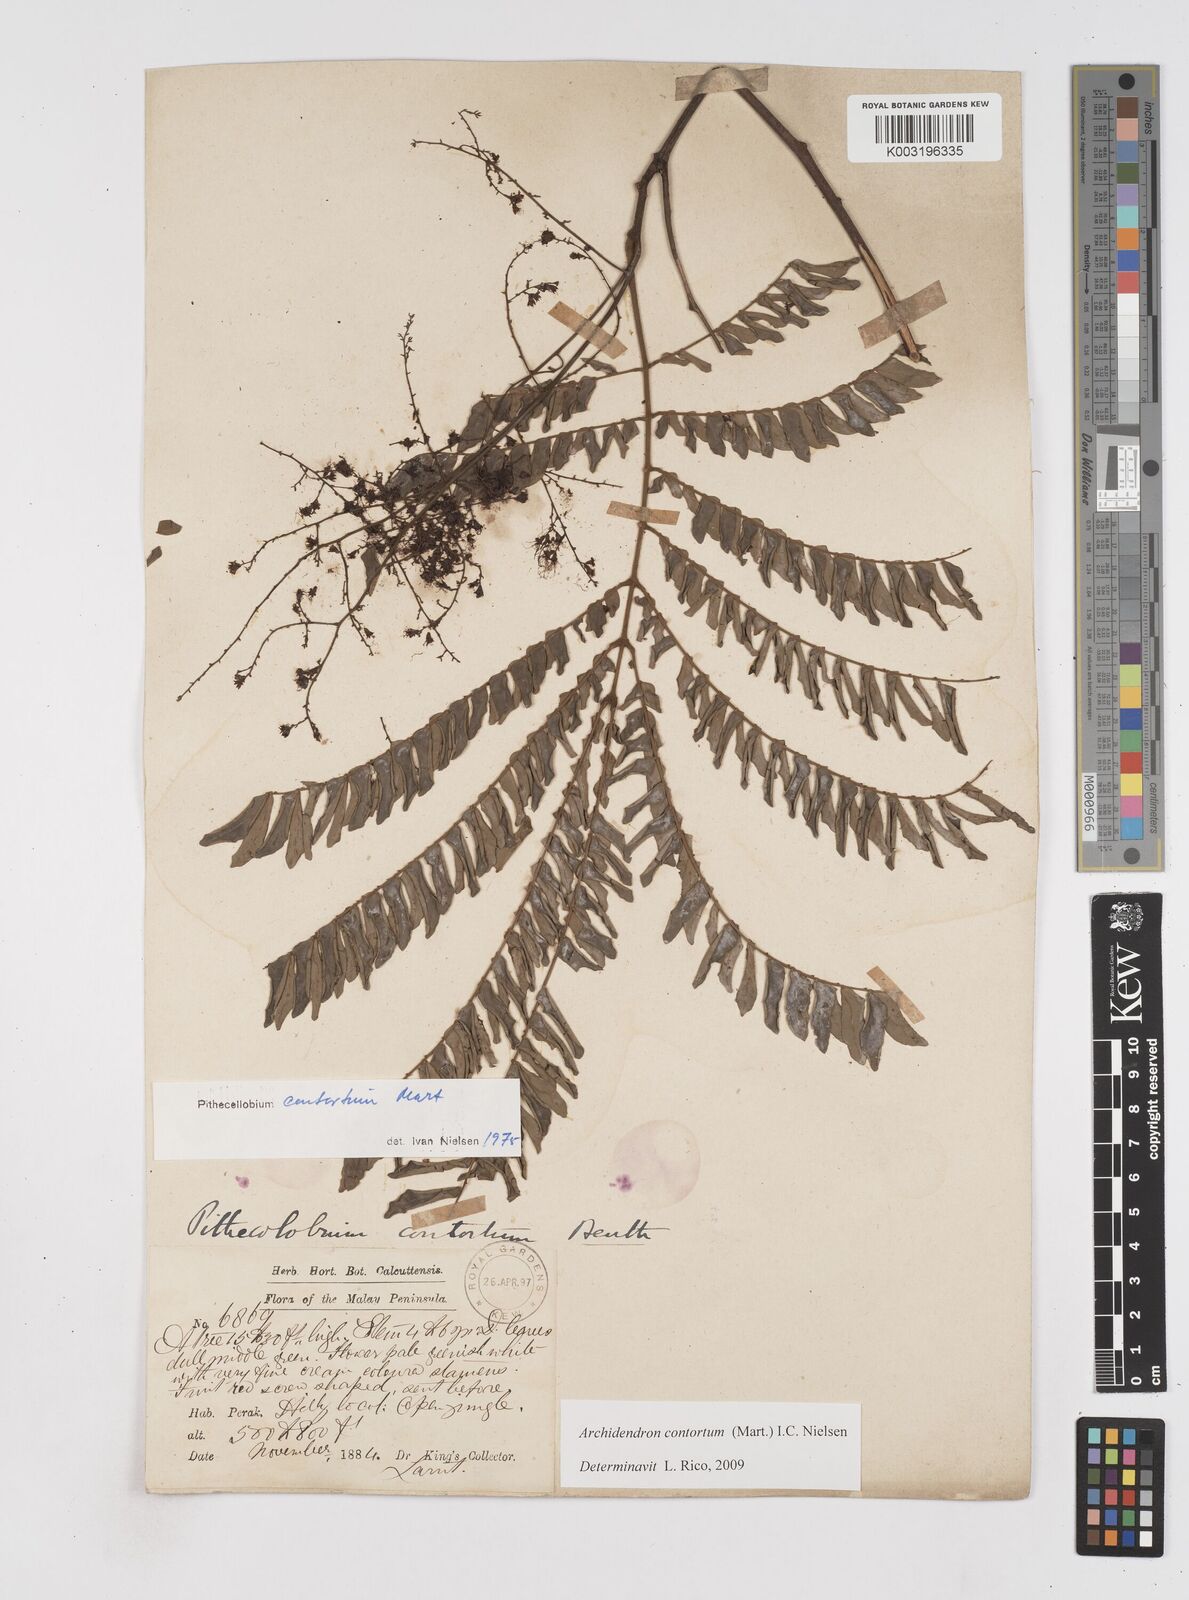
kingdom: Plantae
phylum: Tracheophyta
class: Magnoliopsida
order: Fabales
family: Fabaceae
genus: Archidendron
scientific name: Archidendron contortum
